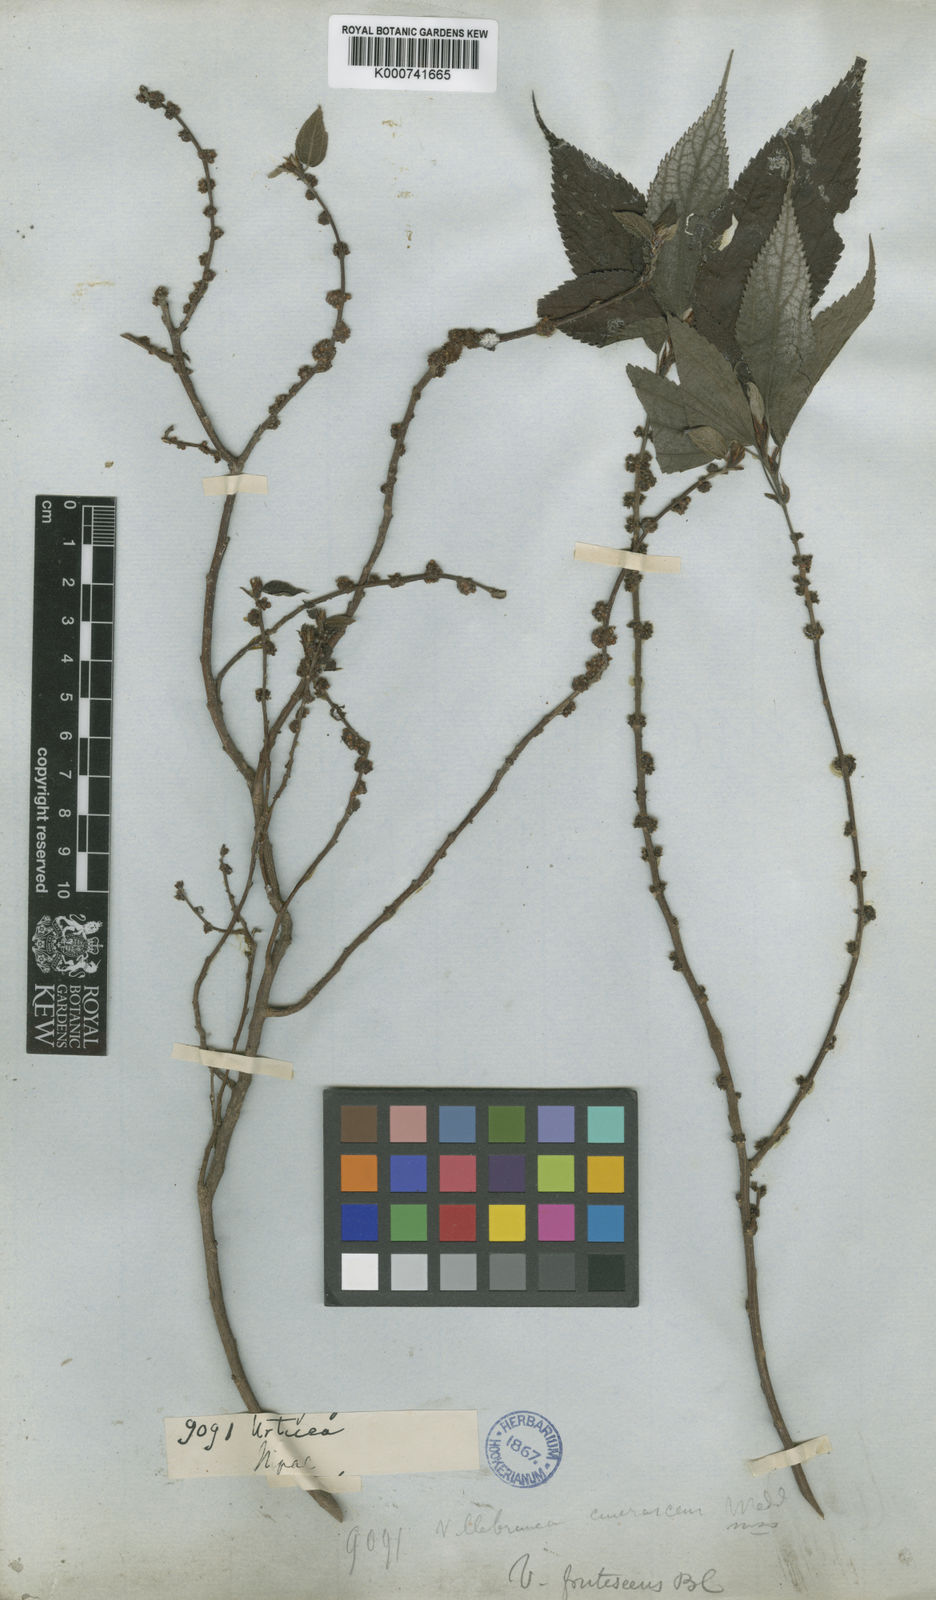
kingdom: Plantae
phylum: Tracheophyta
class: Magnoliopsida
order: Rosales
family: Urticaceae
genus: Oreocnide
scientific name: Oreocnide frutescens
